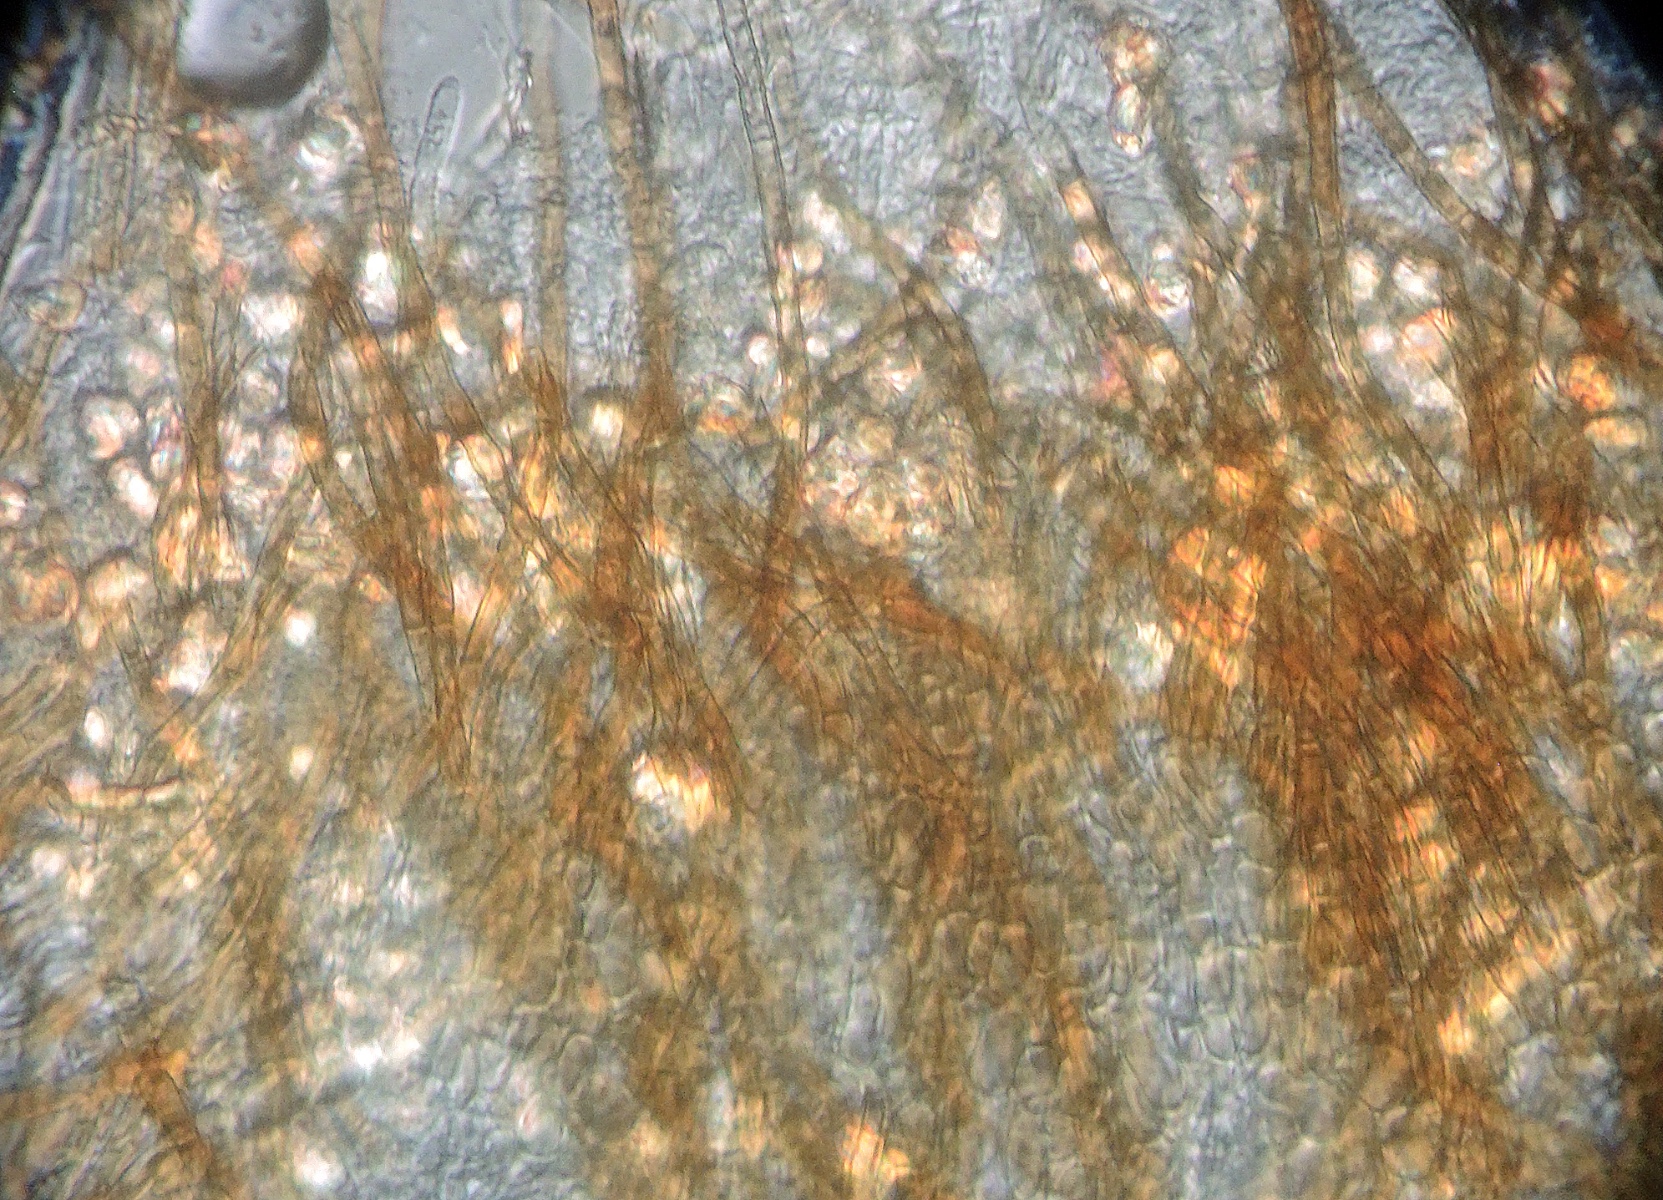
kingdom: Fungi
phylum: Ascomycota
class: Leotiomycetes
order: Helotiales
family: Lachnaceae
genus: Brunnipila
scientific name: Brunnipila
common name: frynseskive
